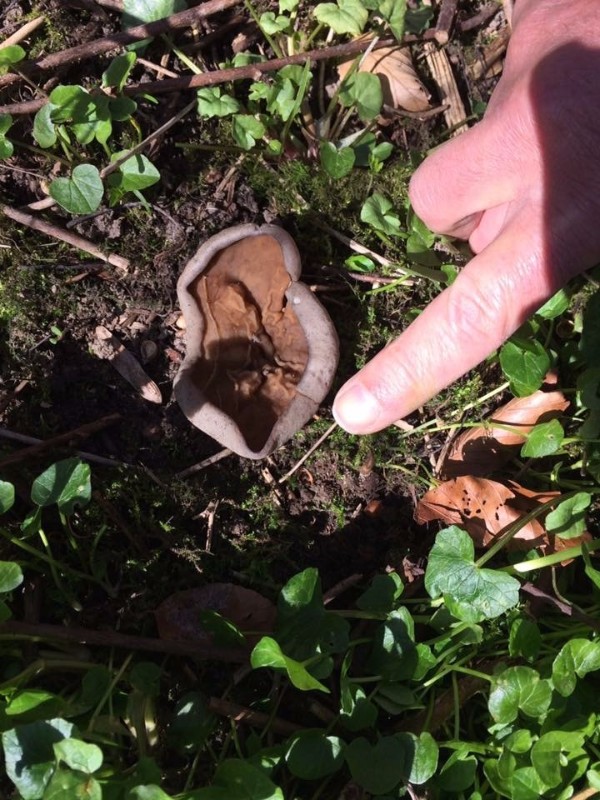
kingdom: Fungi
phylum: Ascomycota
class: Pezizomycetes
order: Pezizales
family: Morchellaceae
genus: Disciotis
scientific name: Disciotis venosa
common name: klor-bægermorkel
